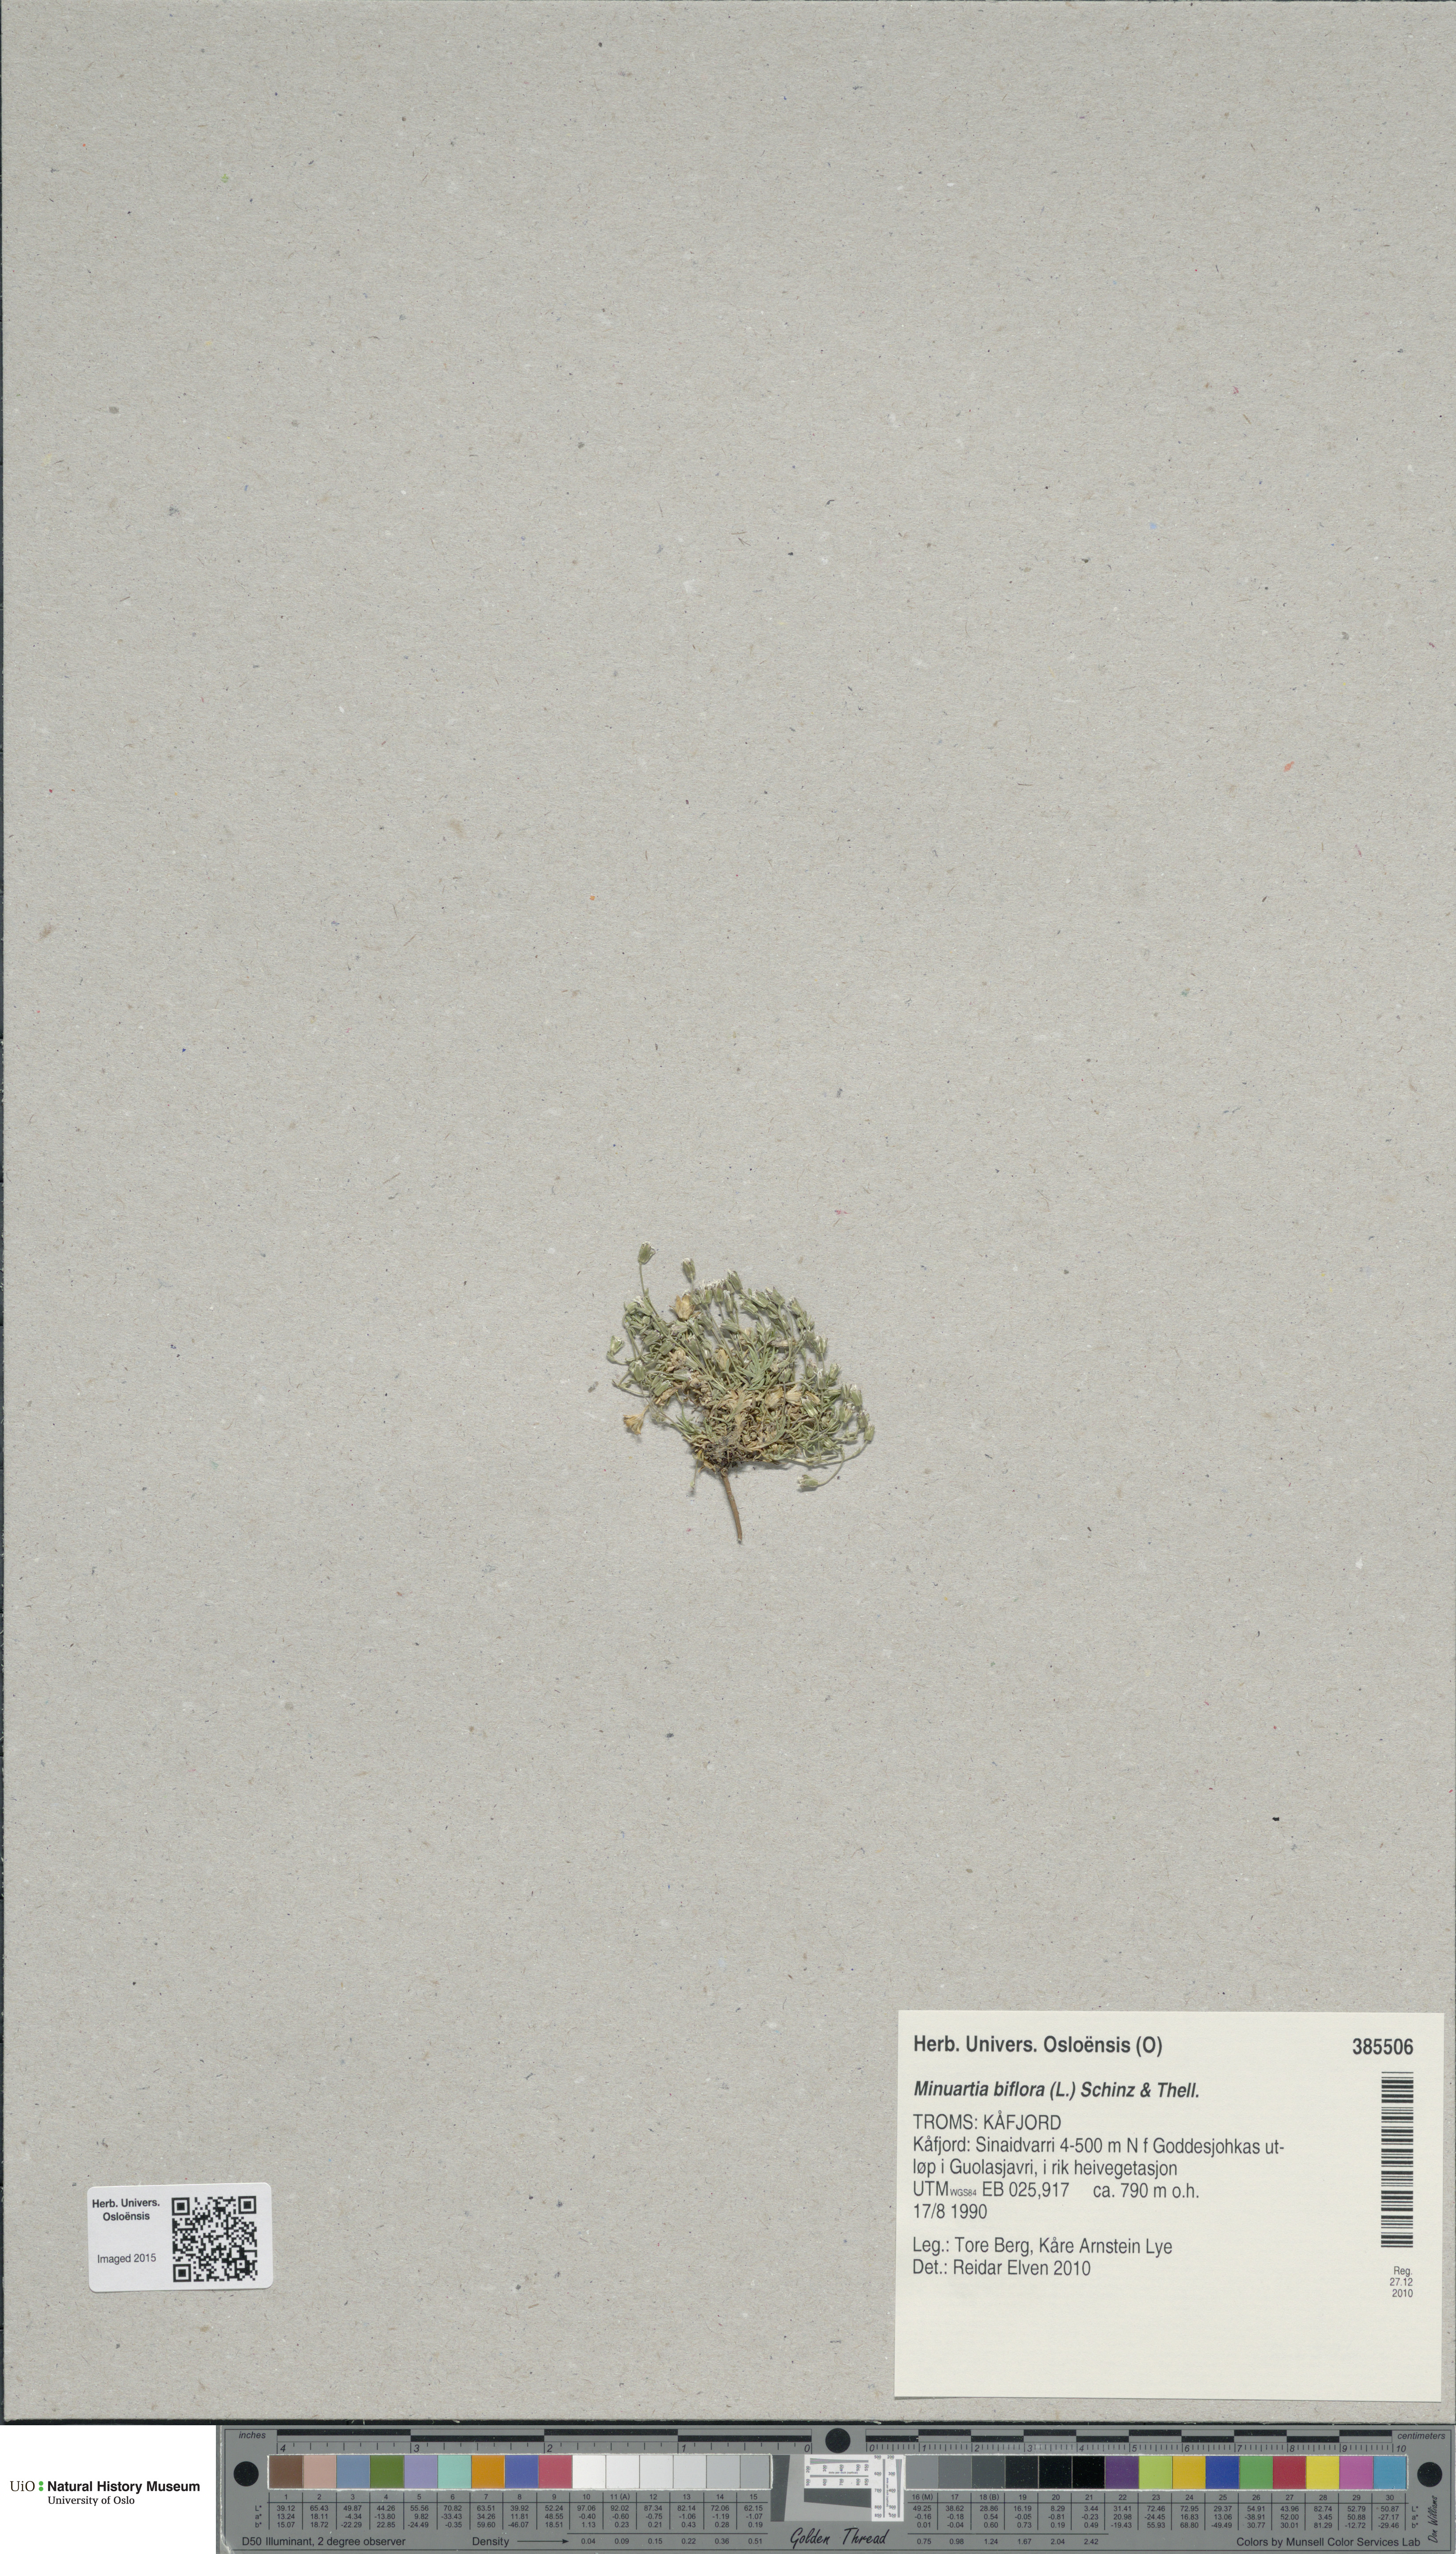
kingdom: Plantae
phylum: Tracheophyta
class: Magnoliopsida
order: Caryophyllales
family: Caryophyllaceae
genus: Cherleria
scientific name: Cherleria biflora
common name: Mountain sandwort
